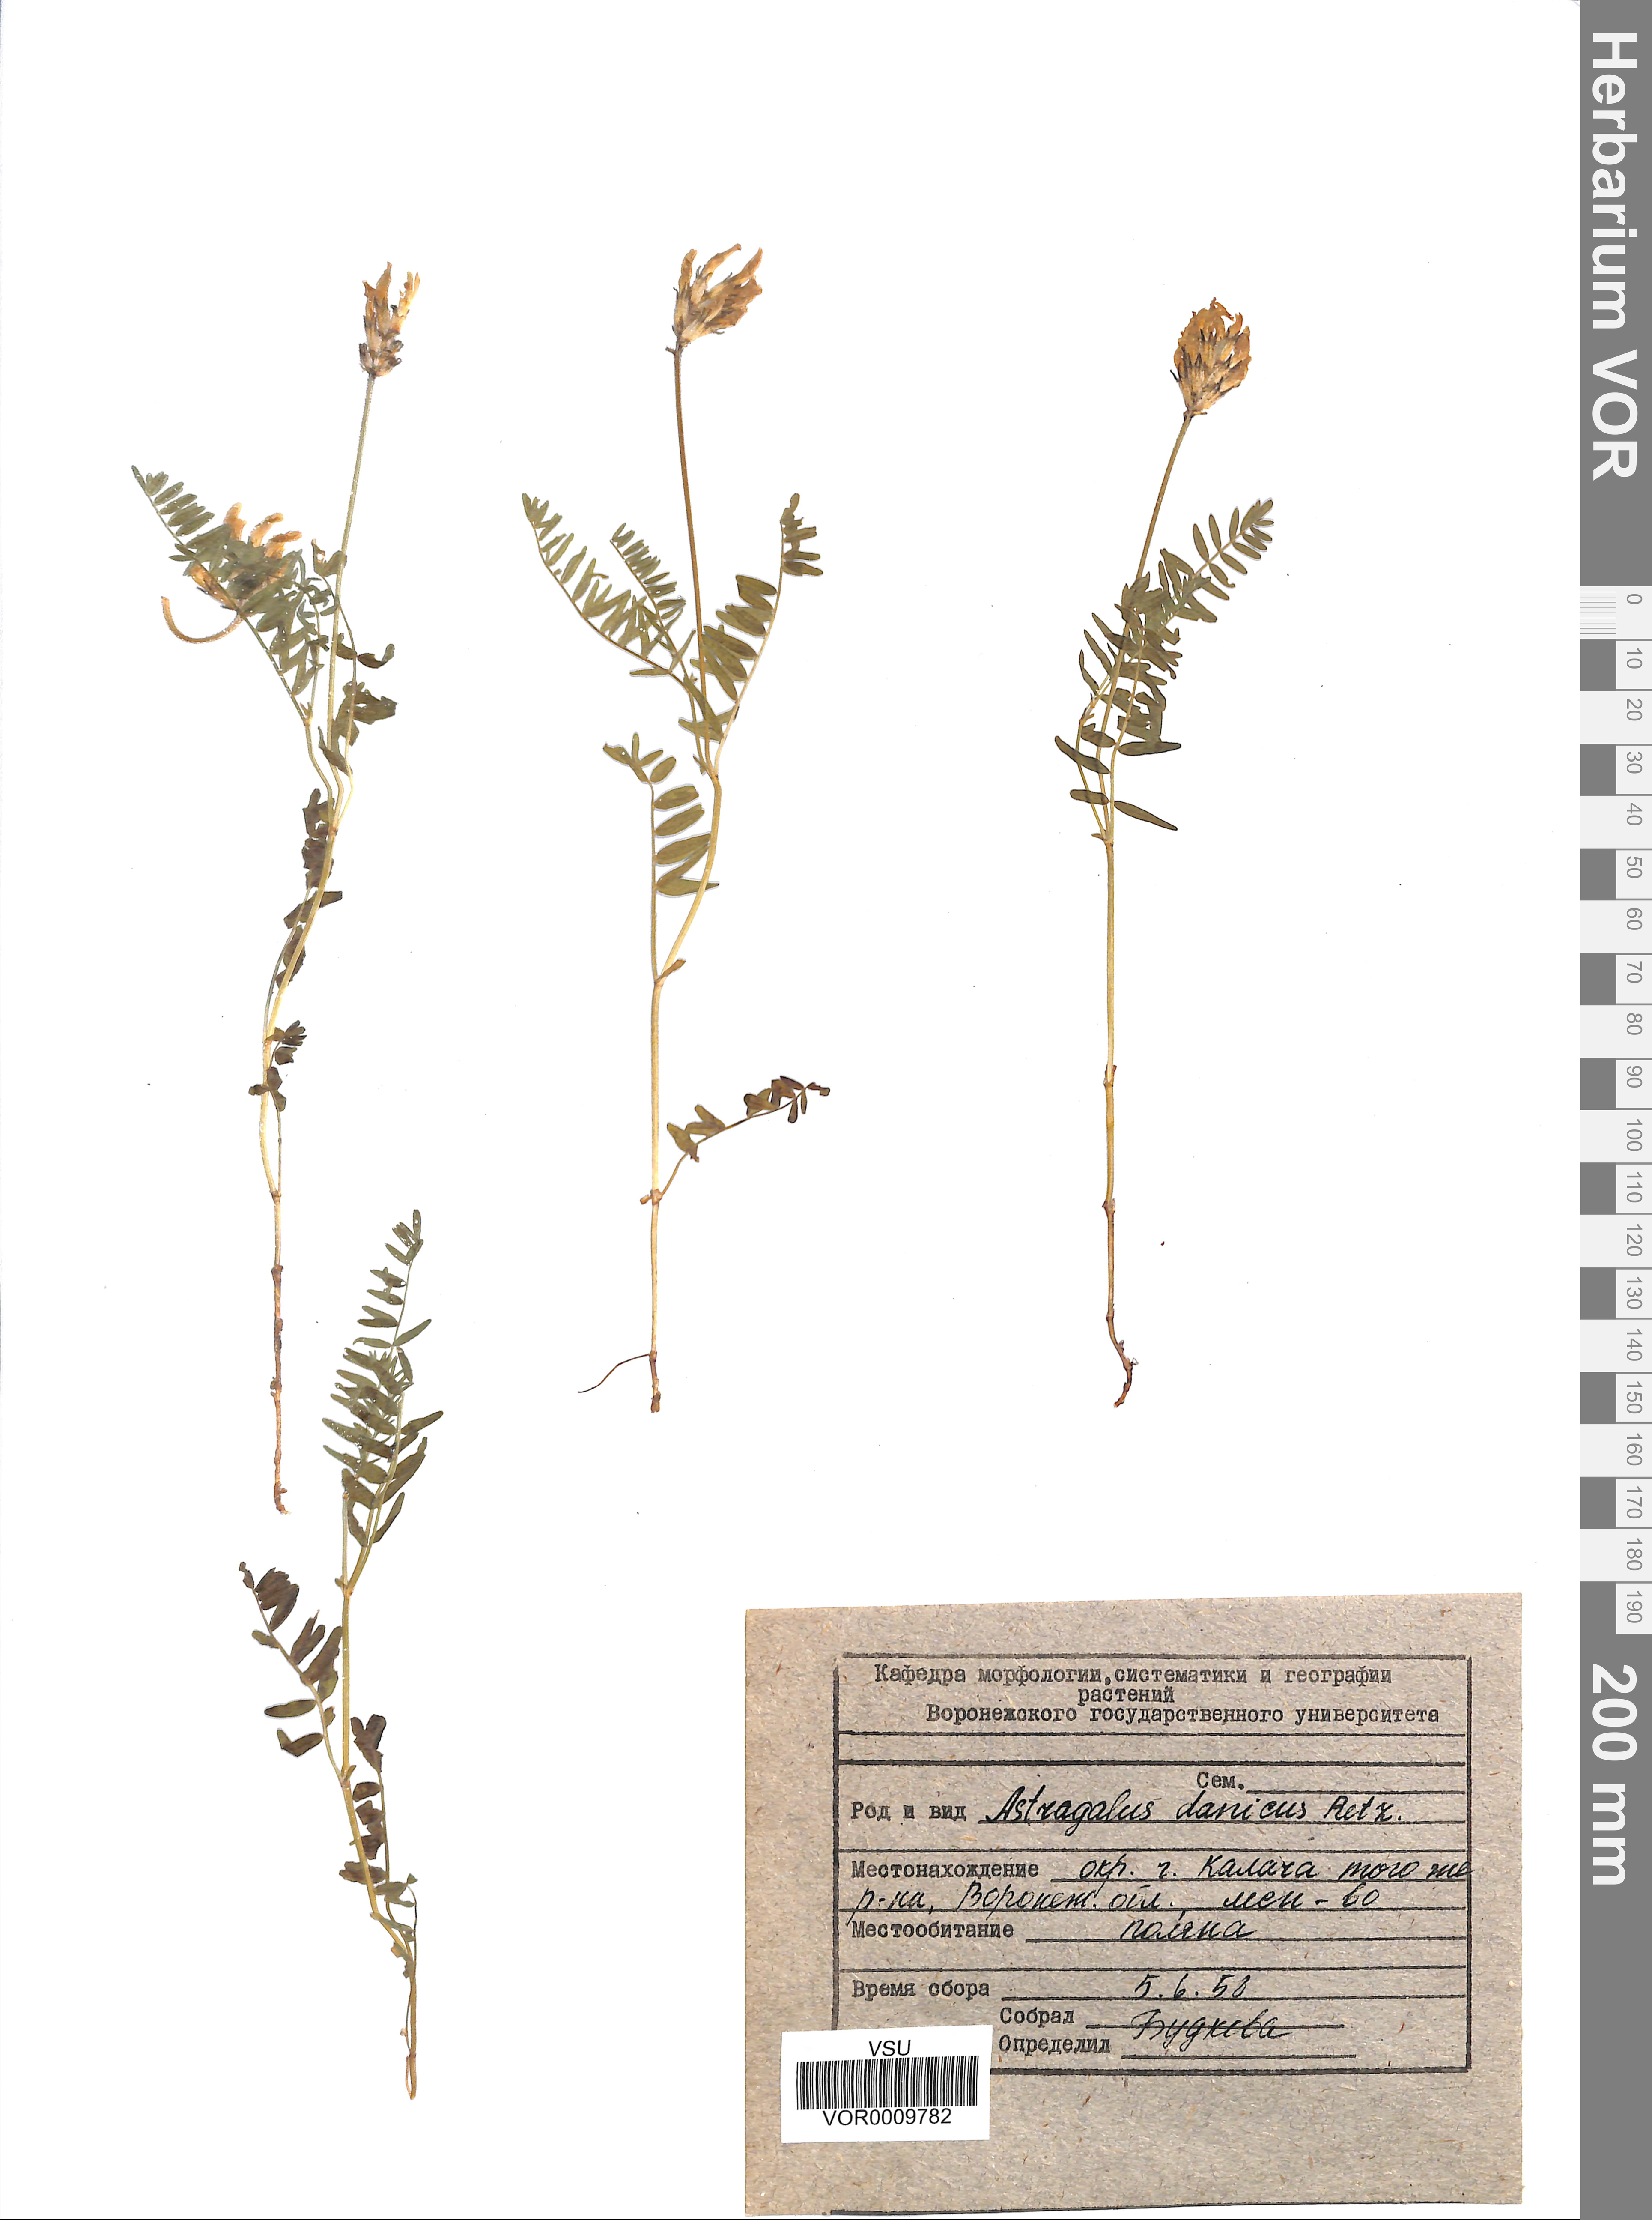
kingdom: Plantae
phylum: Tracheophyta
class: Magnoliopsida
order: Fabales
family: Fabaceae
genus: Astragalus
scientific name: Astragalus danicus
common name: Purple milk-vetch
